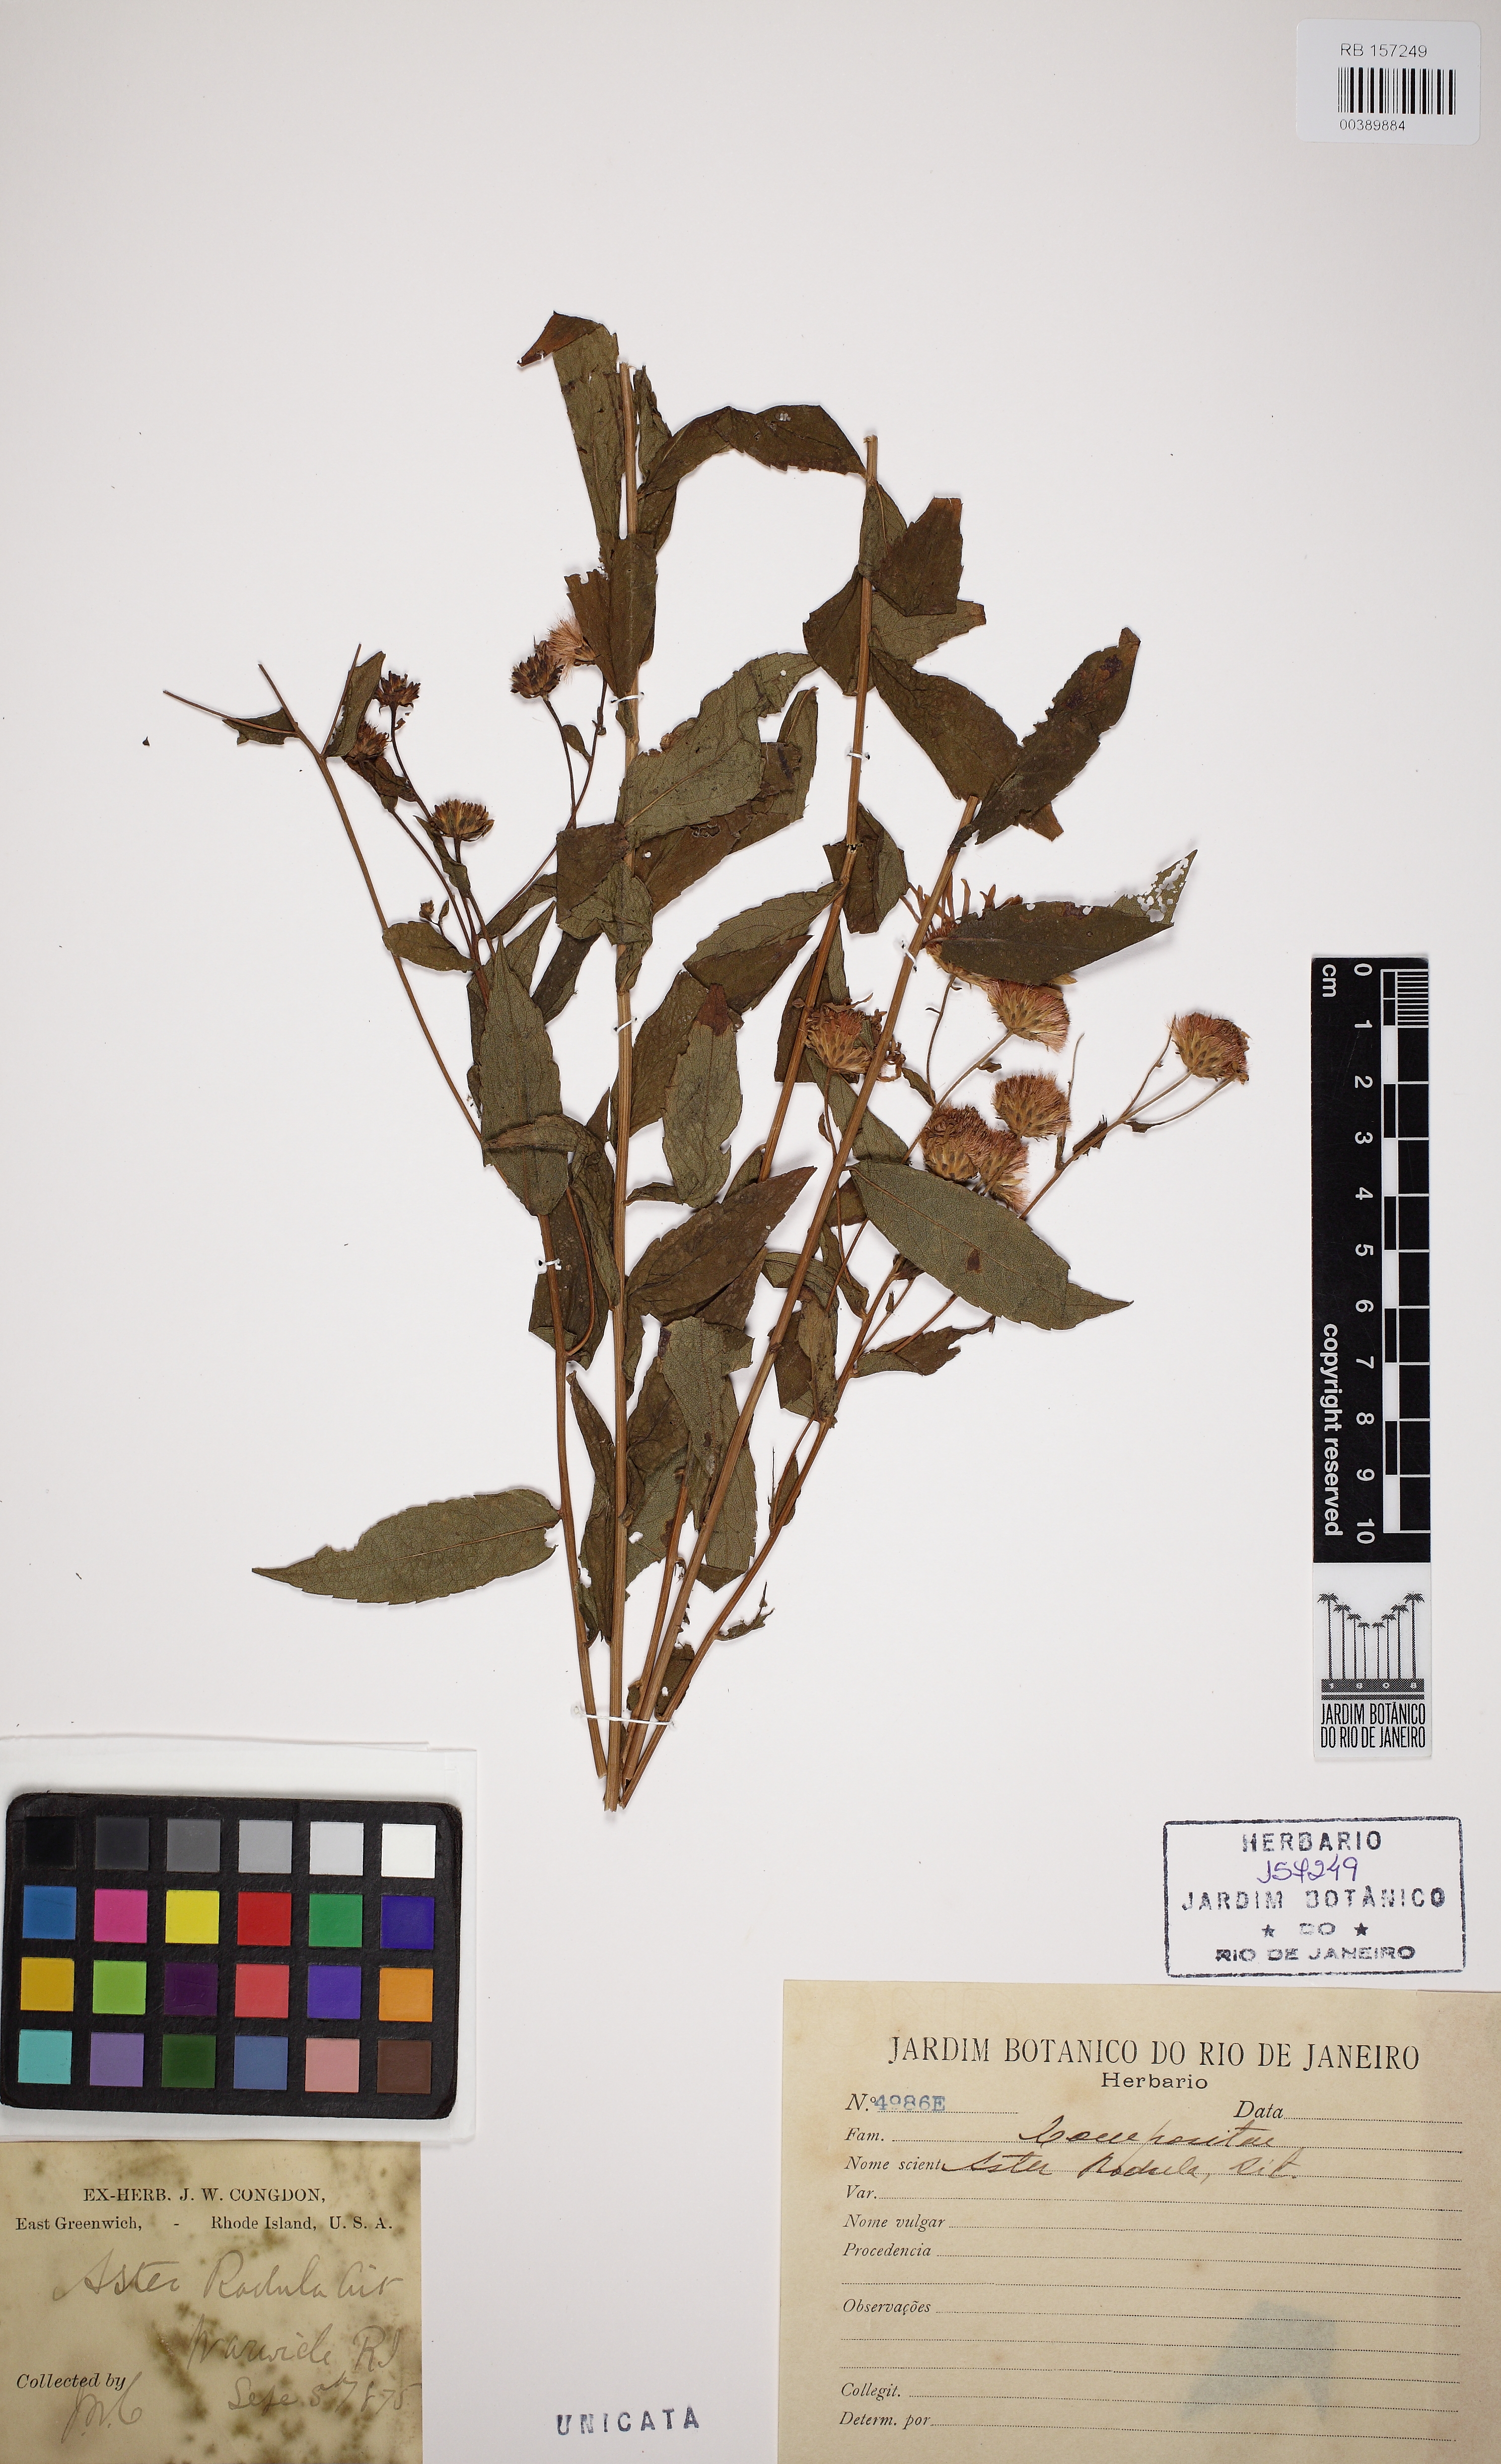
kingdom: Plantae
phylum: Tracheophyta
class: Magnoliopsida
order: Asterales
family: Asteraceae
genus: Aster
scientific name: Aster radula
